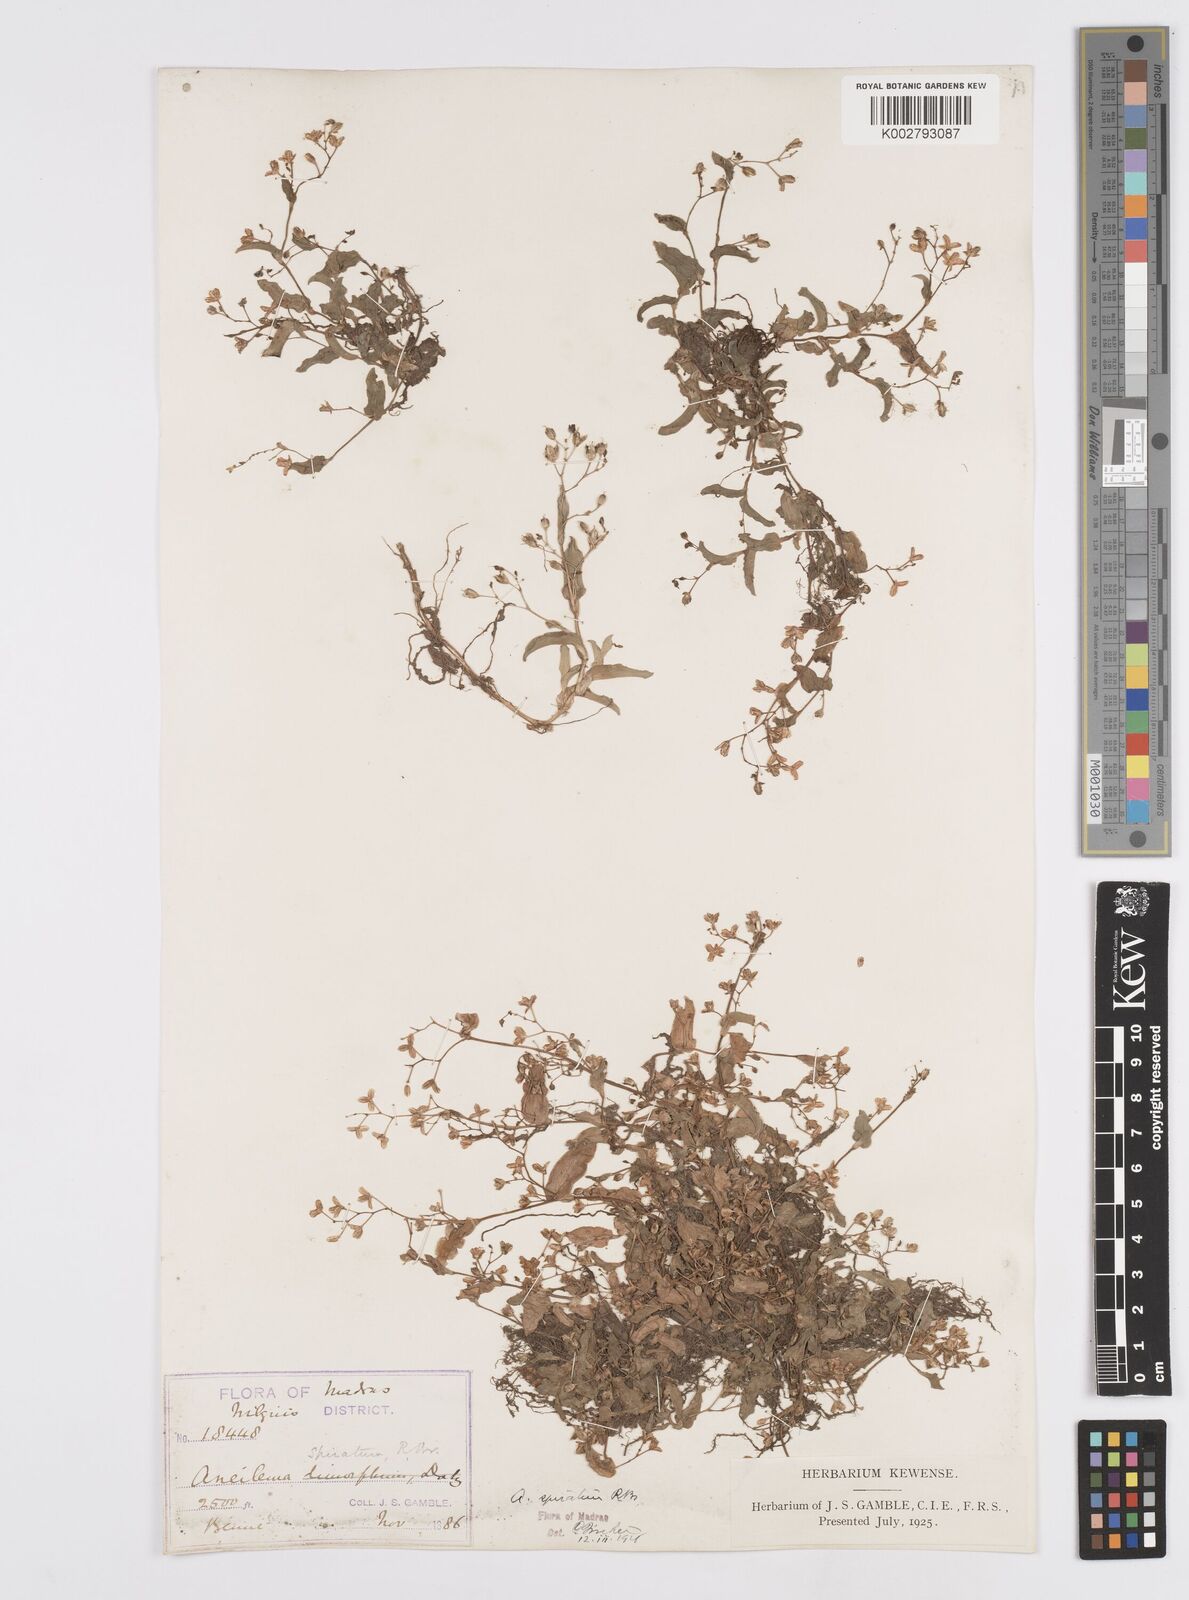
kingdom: Plantae
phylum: Tracheophyta
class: Liliopsida
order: Commelinales
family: Commelinaceae
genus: Murdannia
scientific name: Murdannia spirata
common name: Asiatic dewflower
